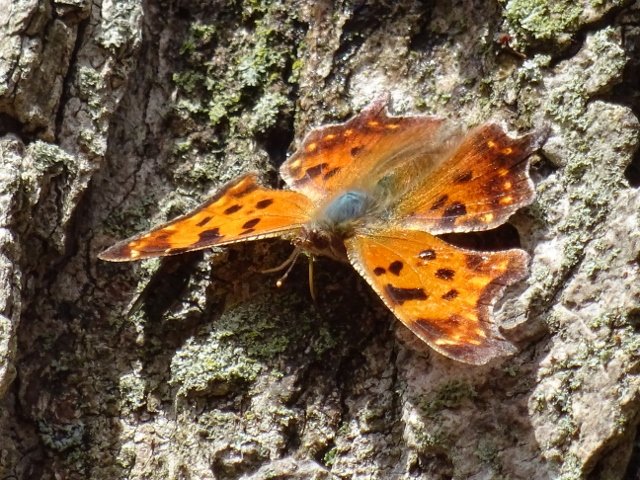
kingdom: Animalia
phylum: Arthropoda
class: Insecta
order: Lepidoptera
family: Nymphalidae
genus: Polygonia
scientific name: Polygonia comma
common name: Eastern Comma
